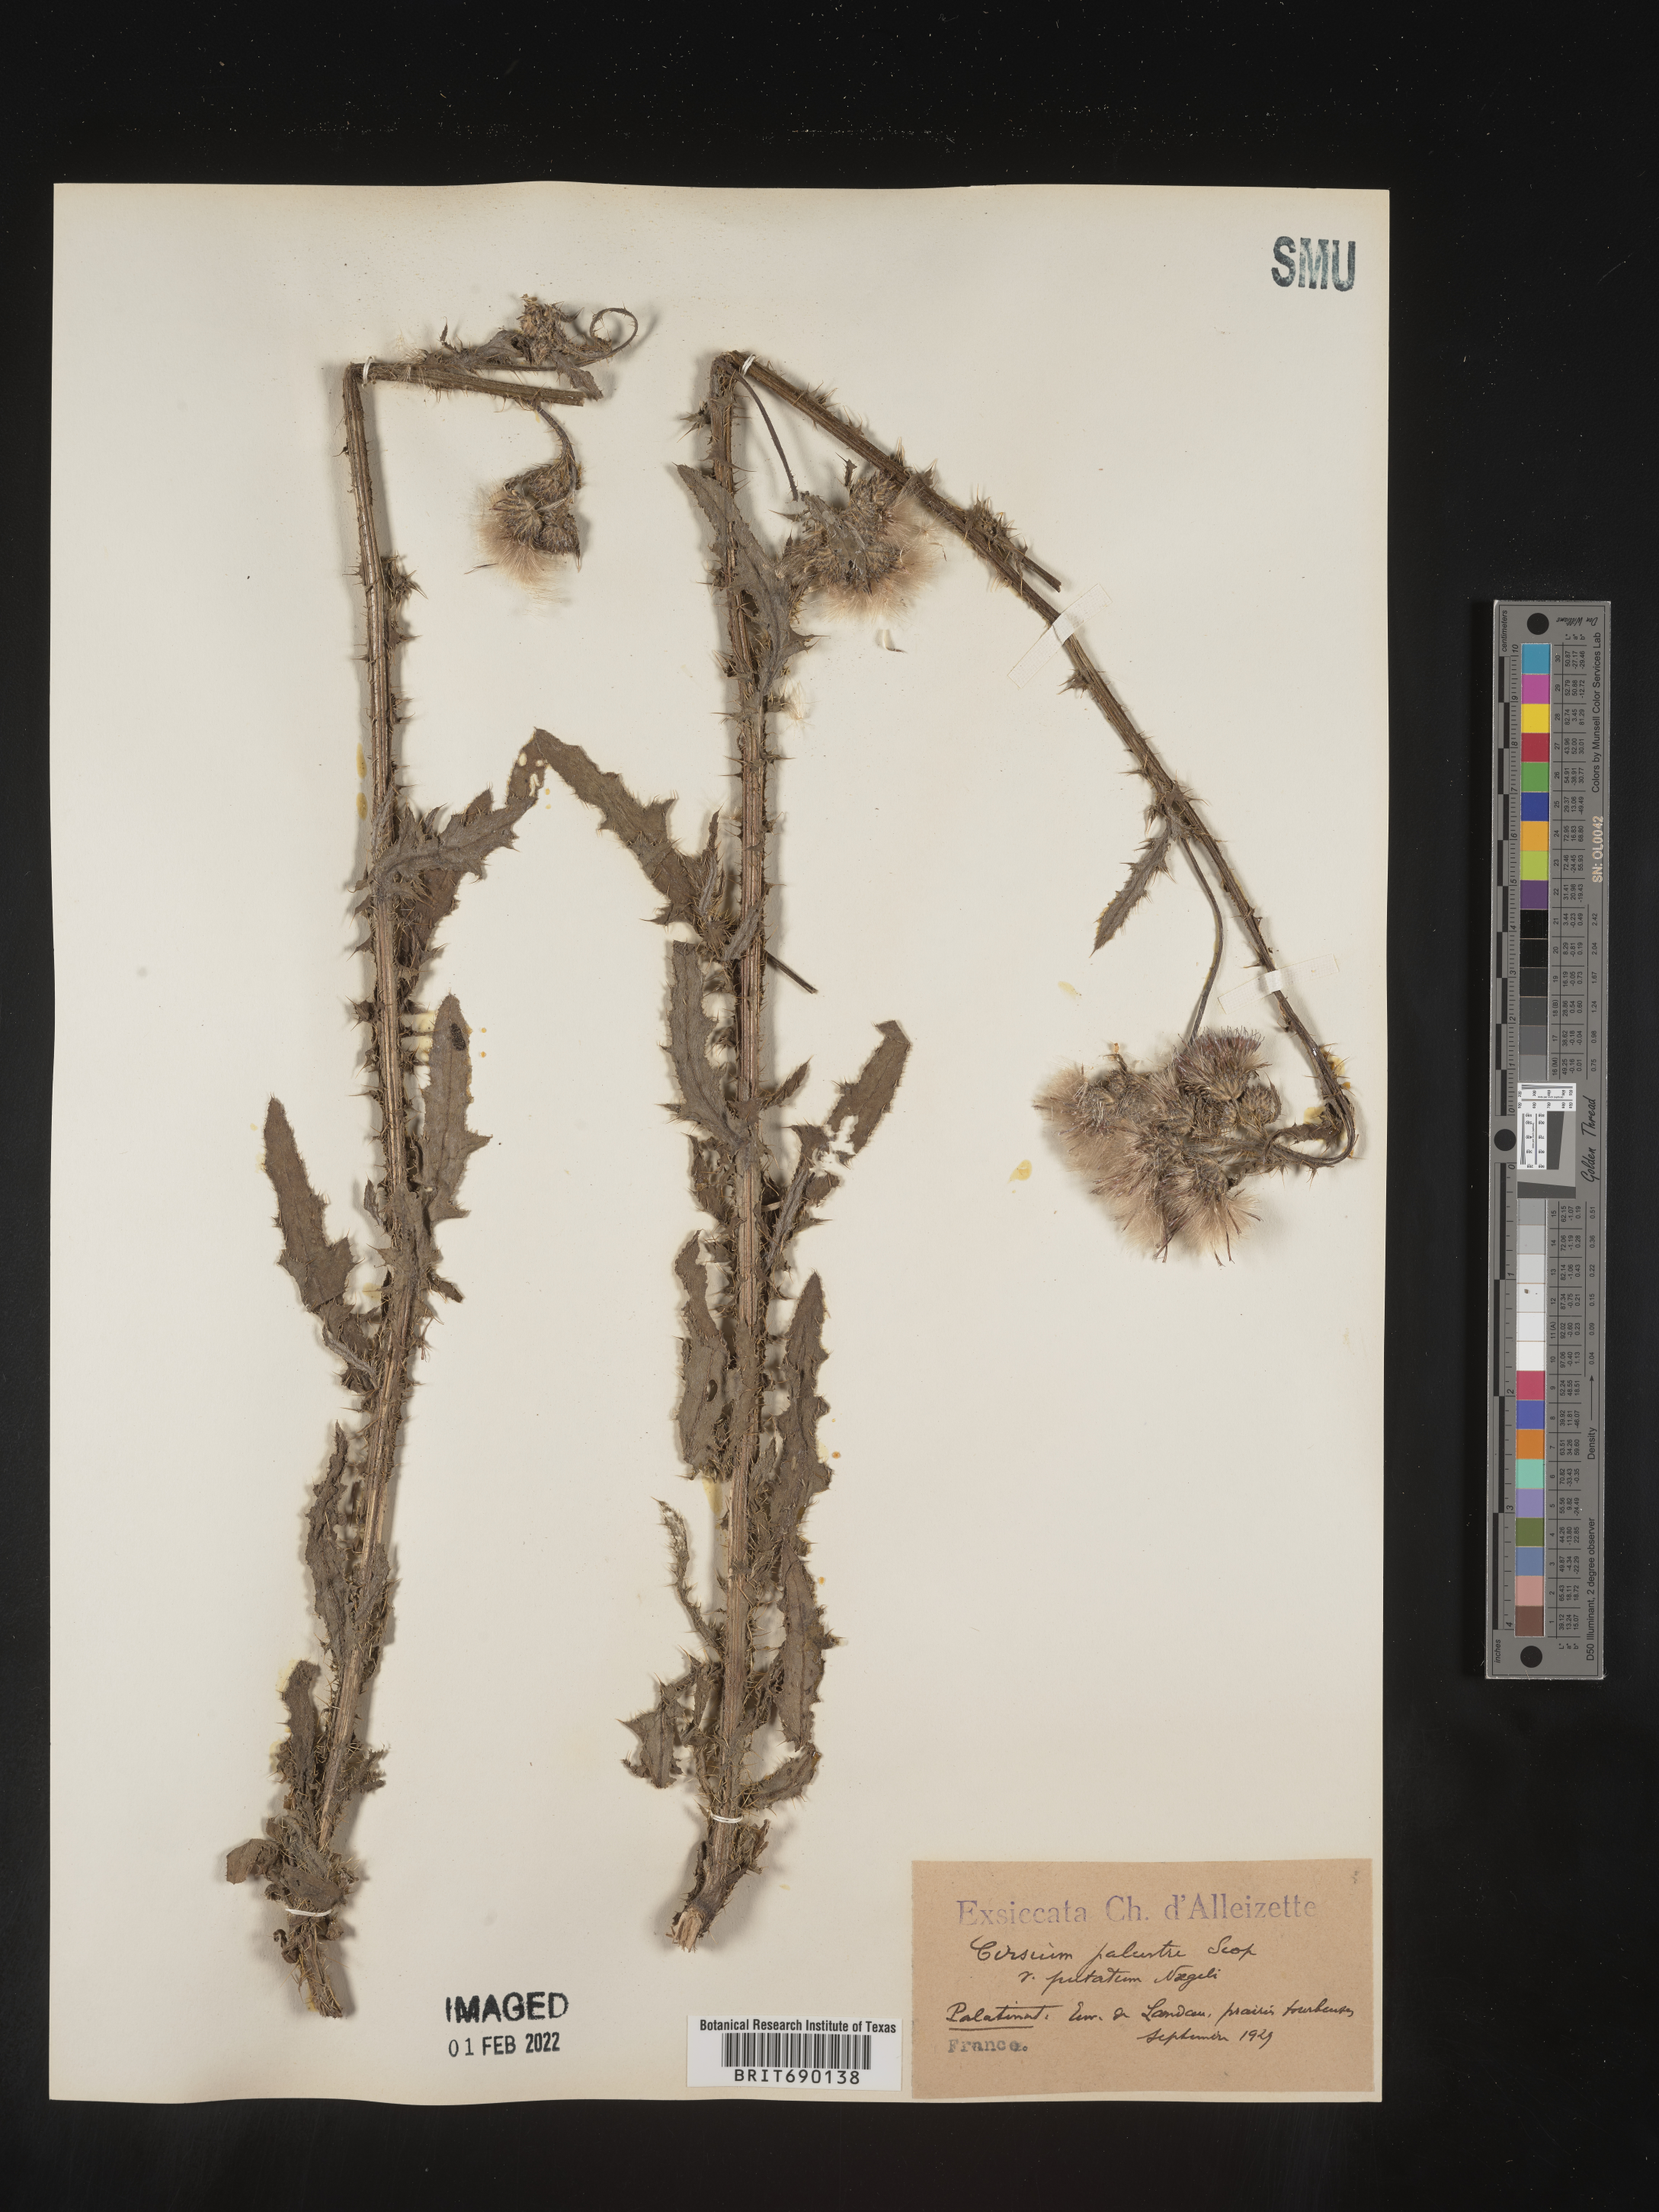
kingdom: Plantae
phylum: Tracheophyta
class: Magnoliopsida
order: Asterales
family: Asteraceae
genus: Cirsium
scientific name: Cirsium
